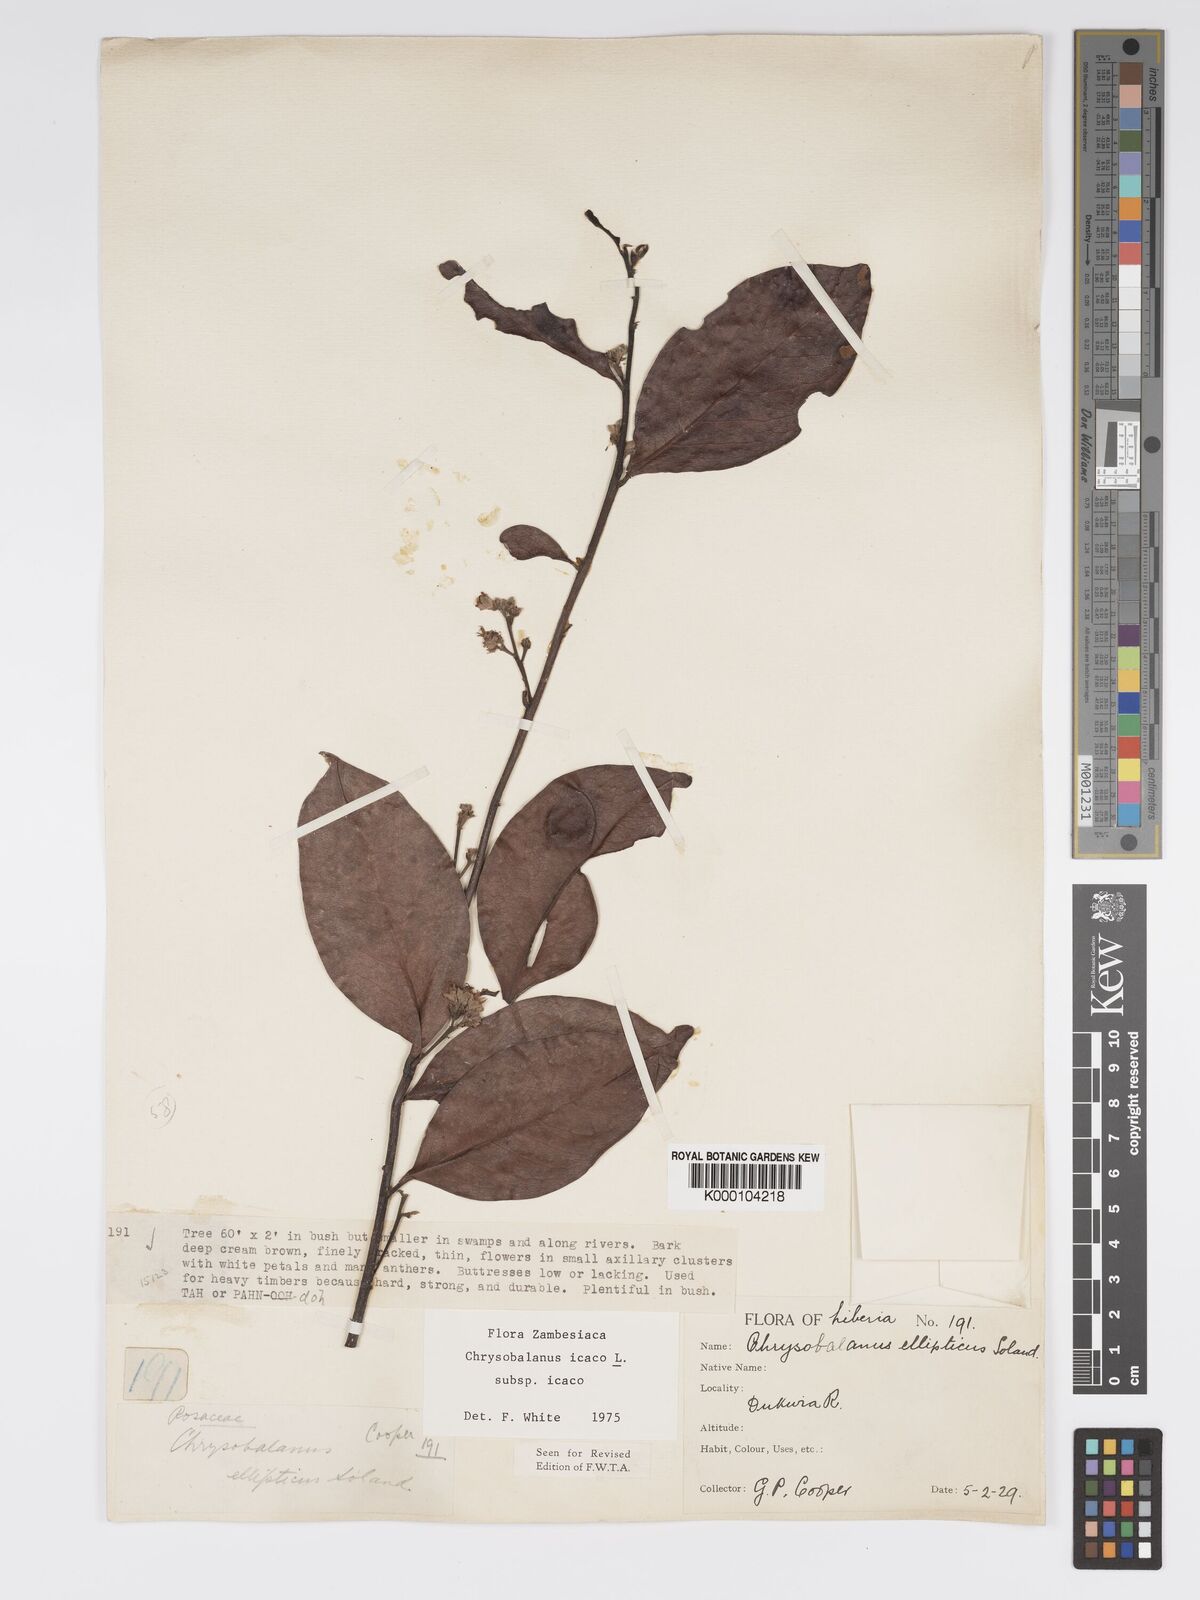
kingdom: Plantae
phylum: Tracheophyta
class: Magnoliopsida
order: Malpighiales
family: Chrysobalanaceae
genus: Chrysobalanus
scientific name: Chrysobalanus icaco
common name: Coco plum
